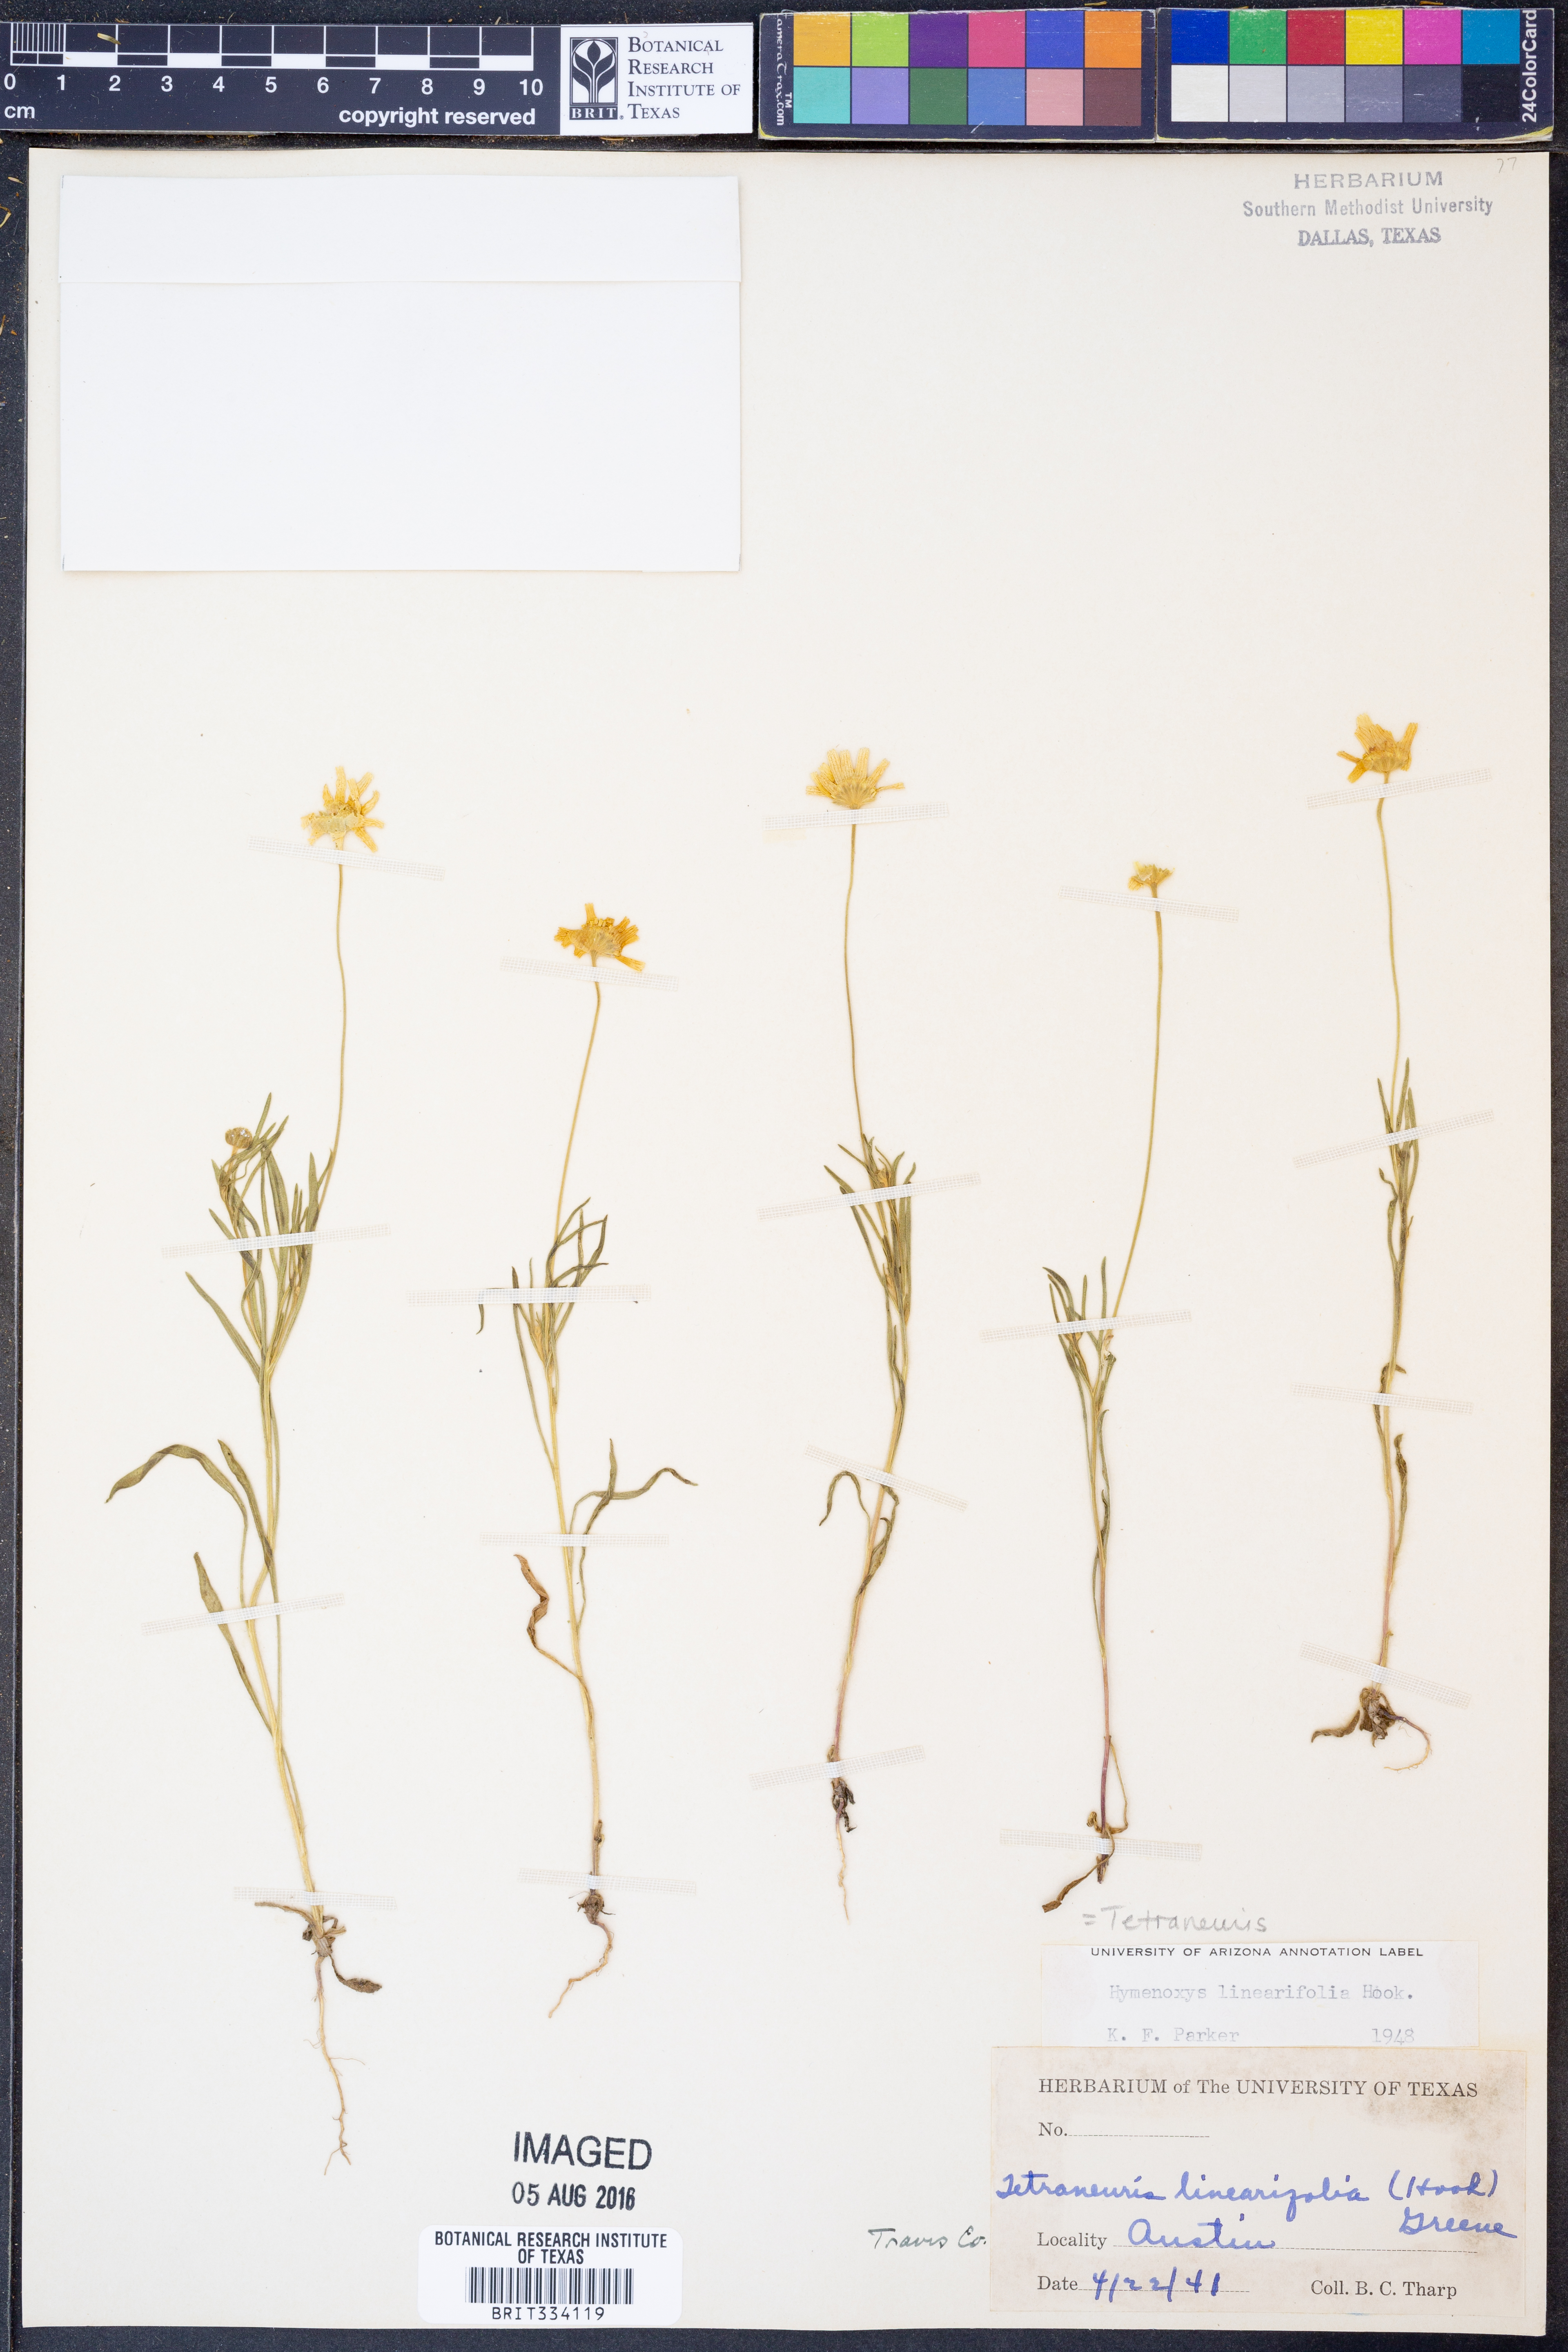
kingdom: Plantae
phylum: Tracheophyta
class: Magnoliopsida
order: Asterales
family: Asteraceae
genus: Tetraneuris
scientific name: Tetraneuris linearifolia
